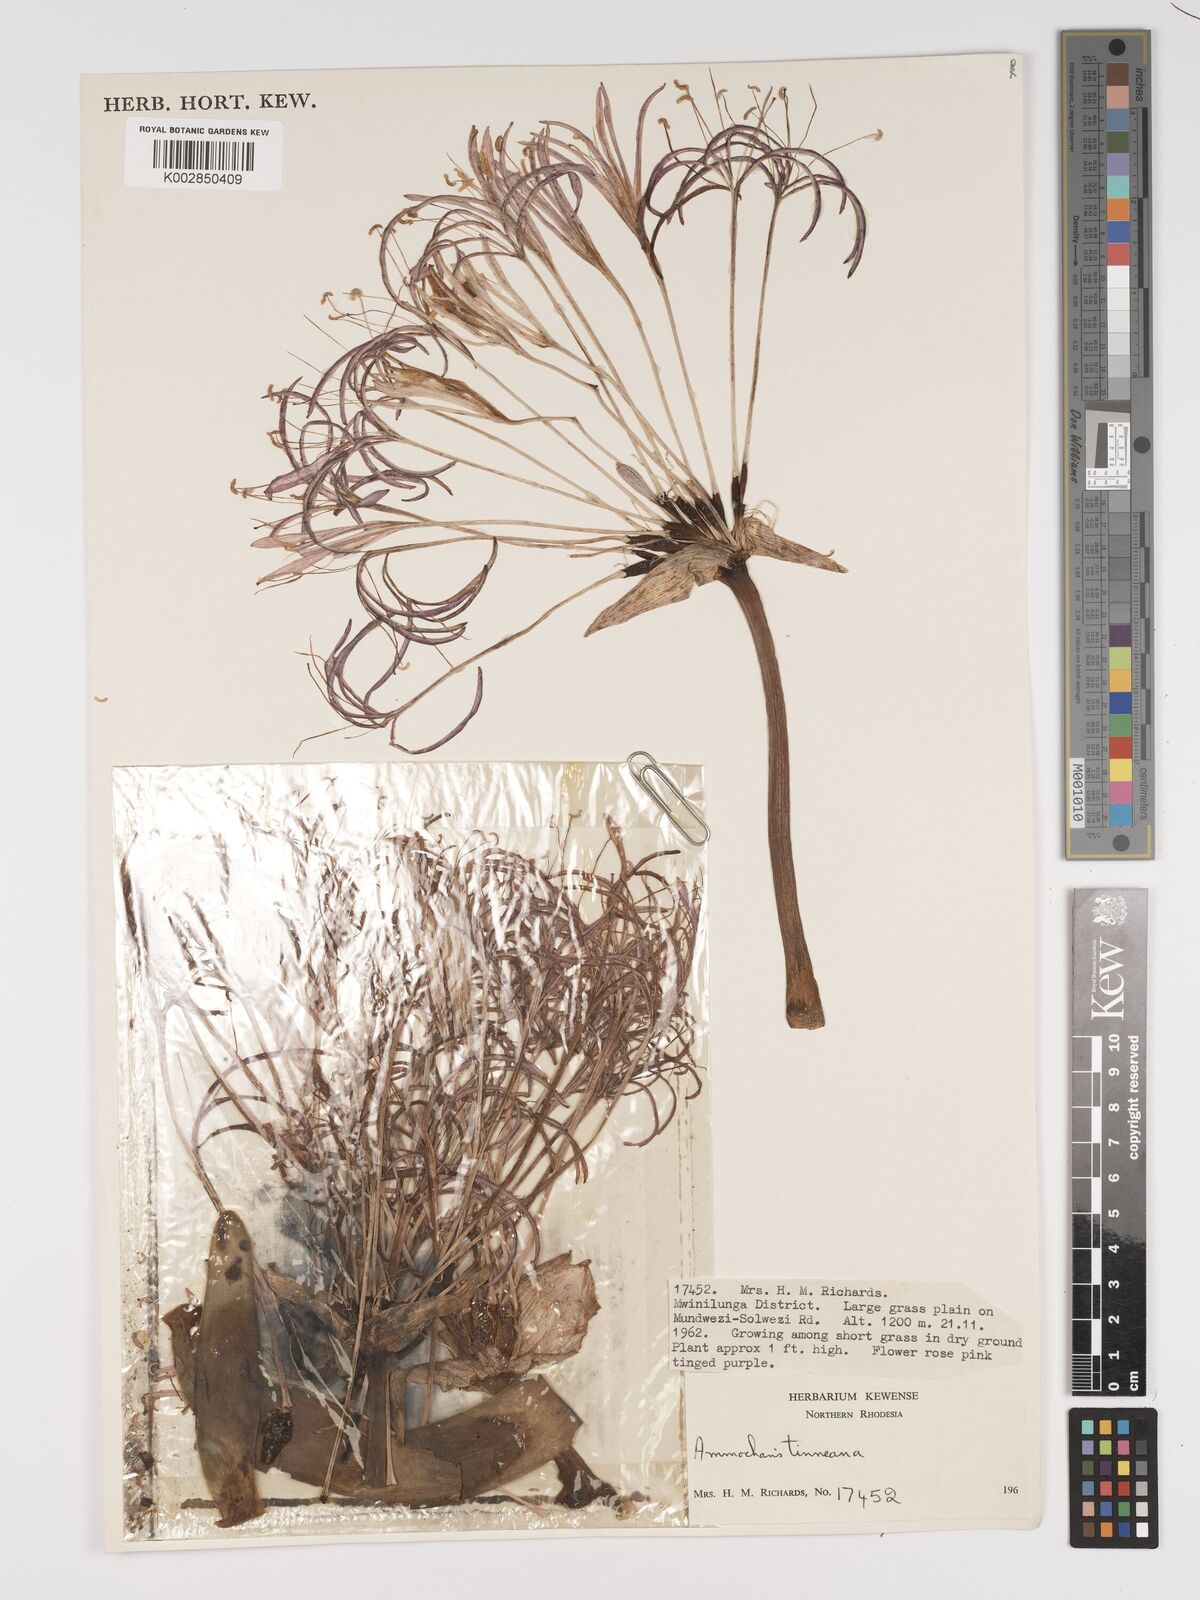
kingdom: Plantae
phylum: Tracheophyta
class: Liliopsida
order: Asparagales
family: Amaryllidaceae
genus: Ammocharis
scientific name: Ammocharis tinneana
